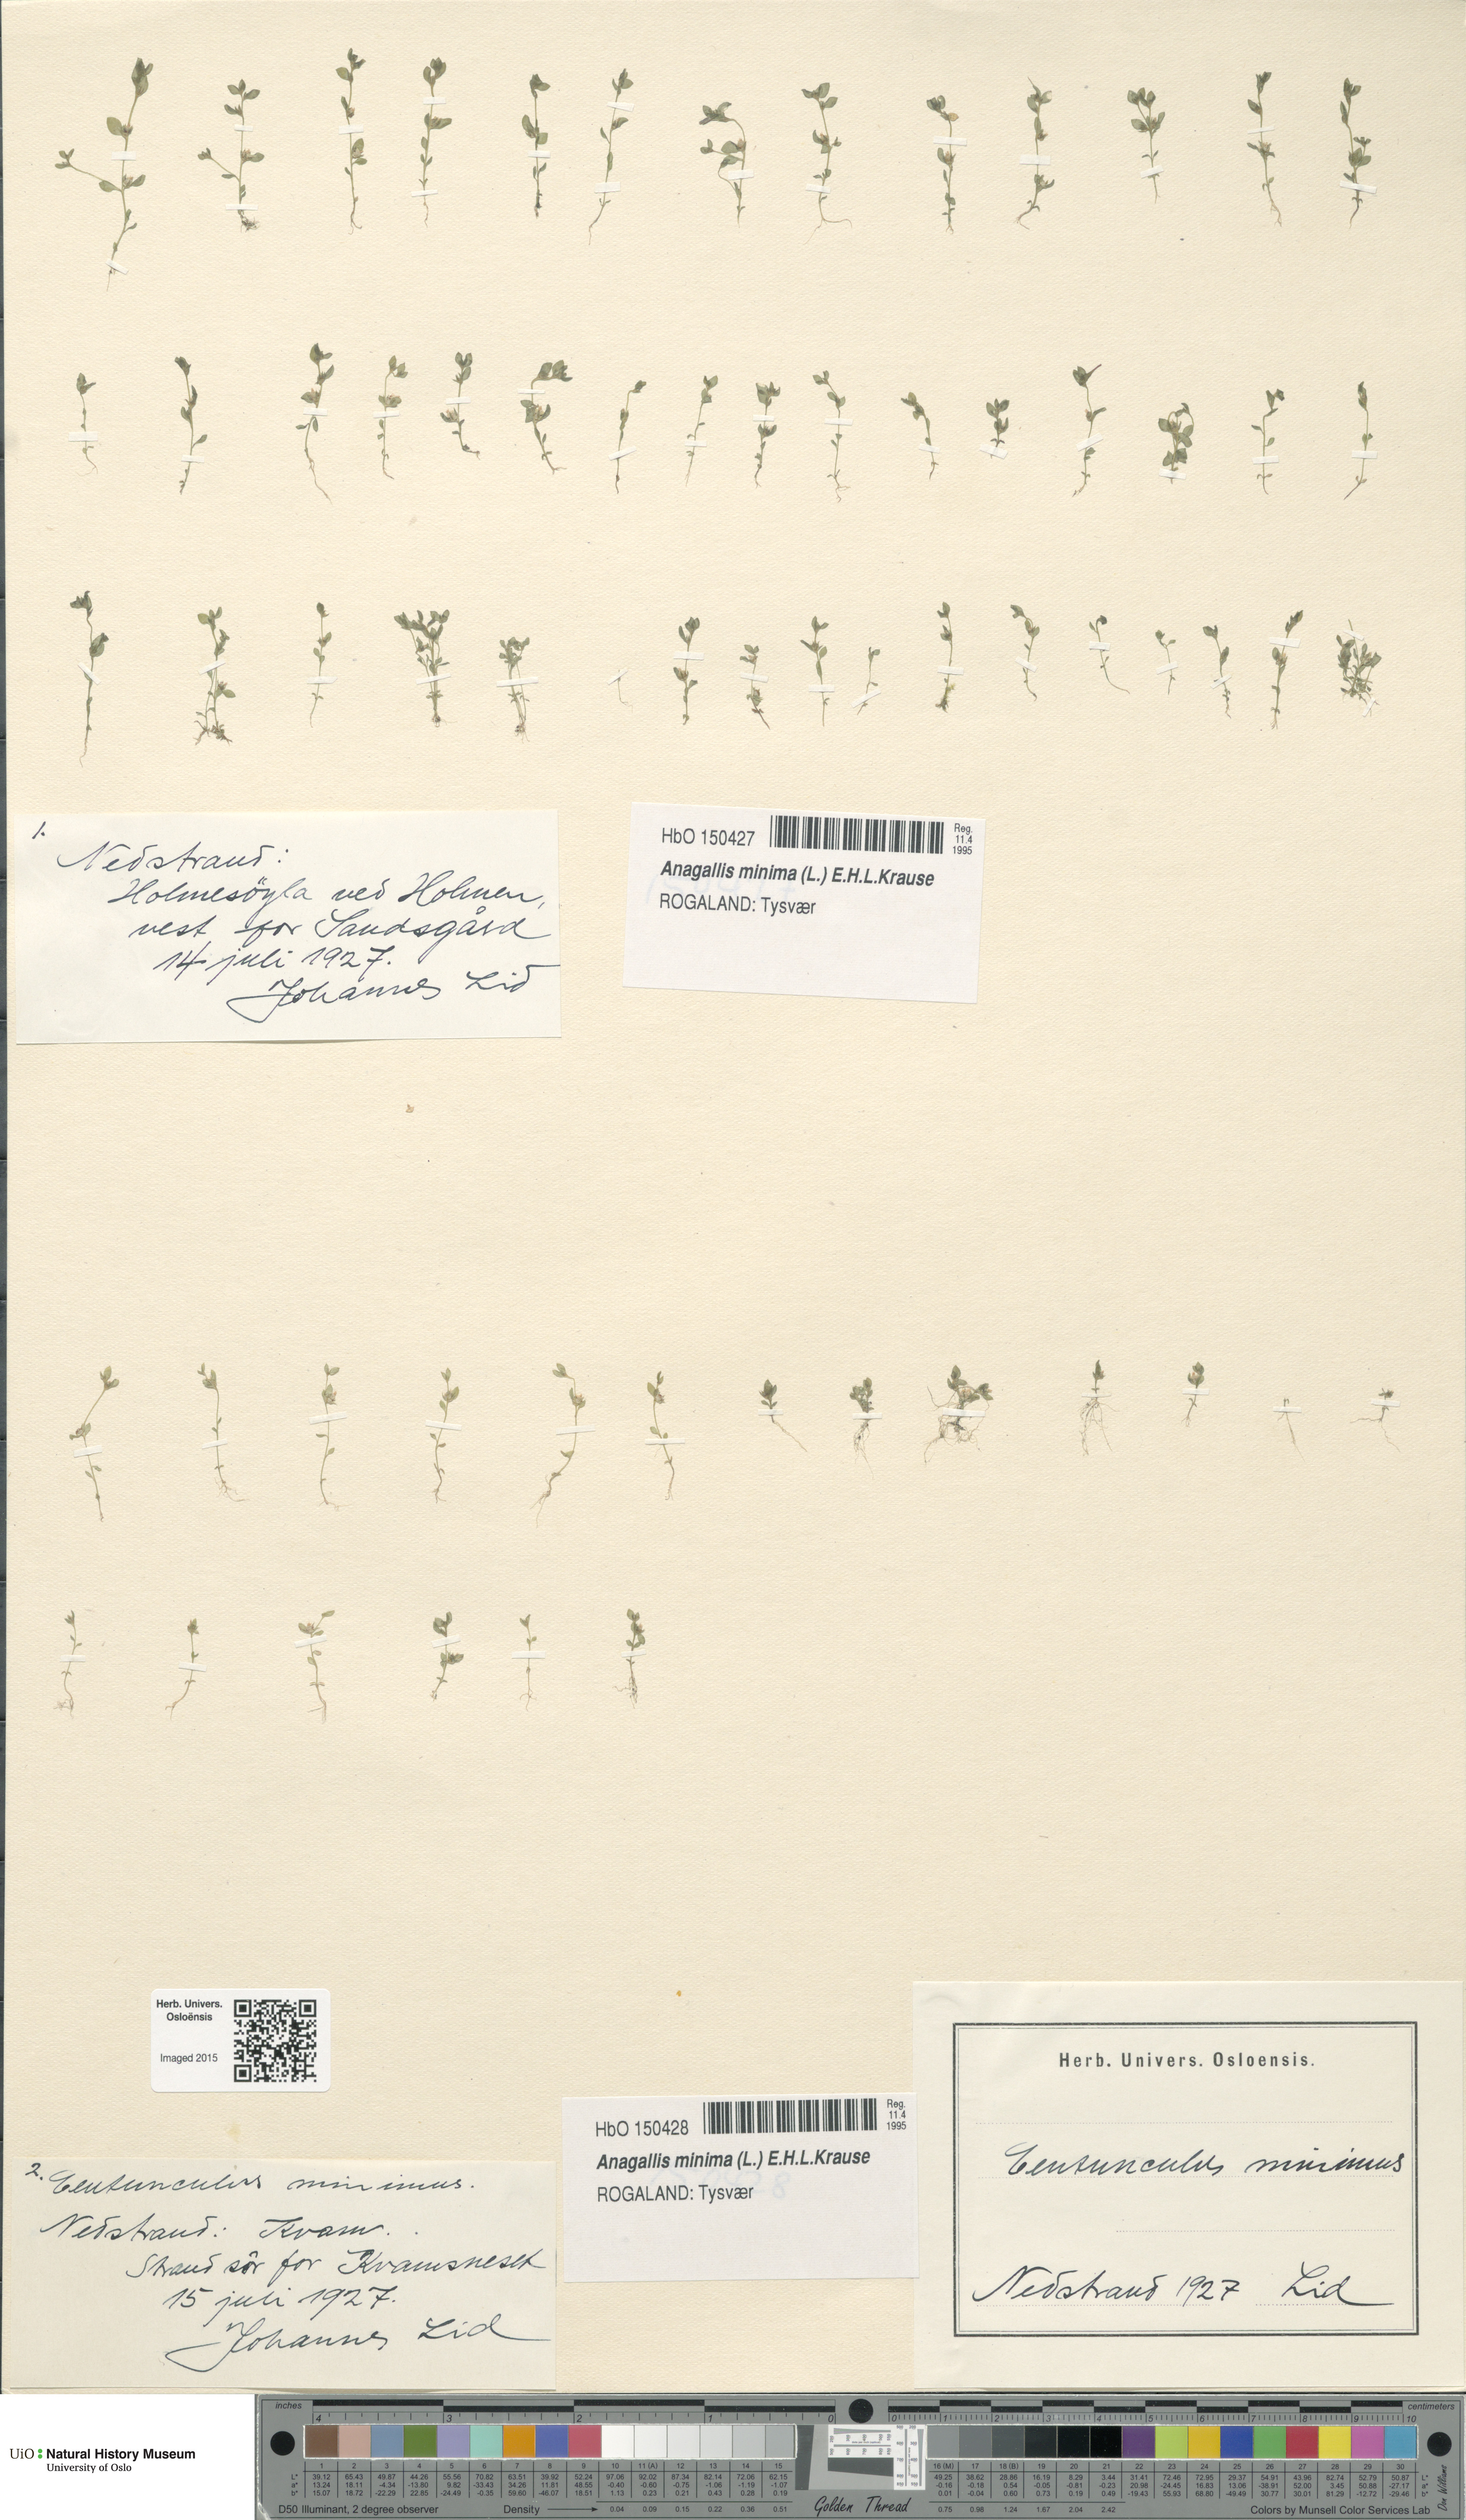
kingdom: Plantae
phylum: Tracheophyta
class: Magnoliopsida
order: Ericales
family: Primulaceae
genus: Lysimachia
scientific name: Lysimachia minima
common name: Chaffweed
